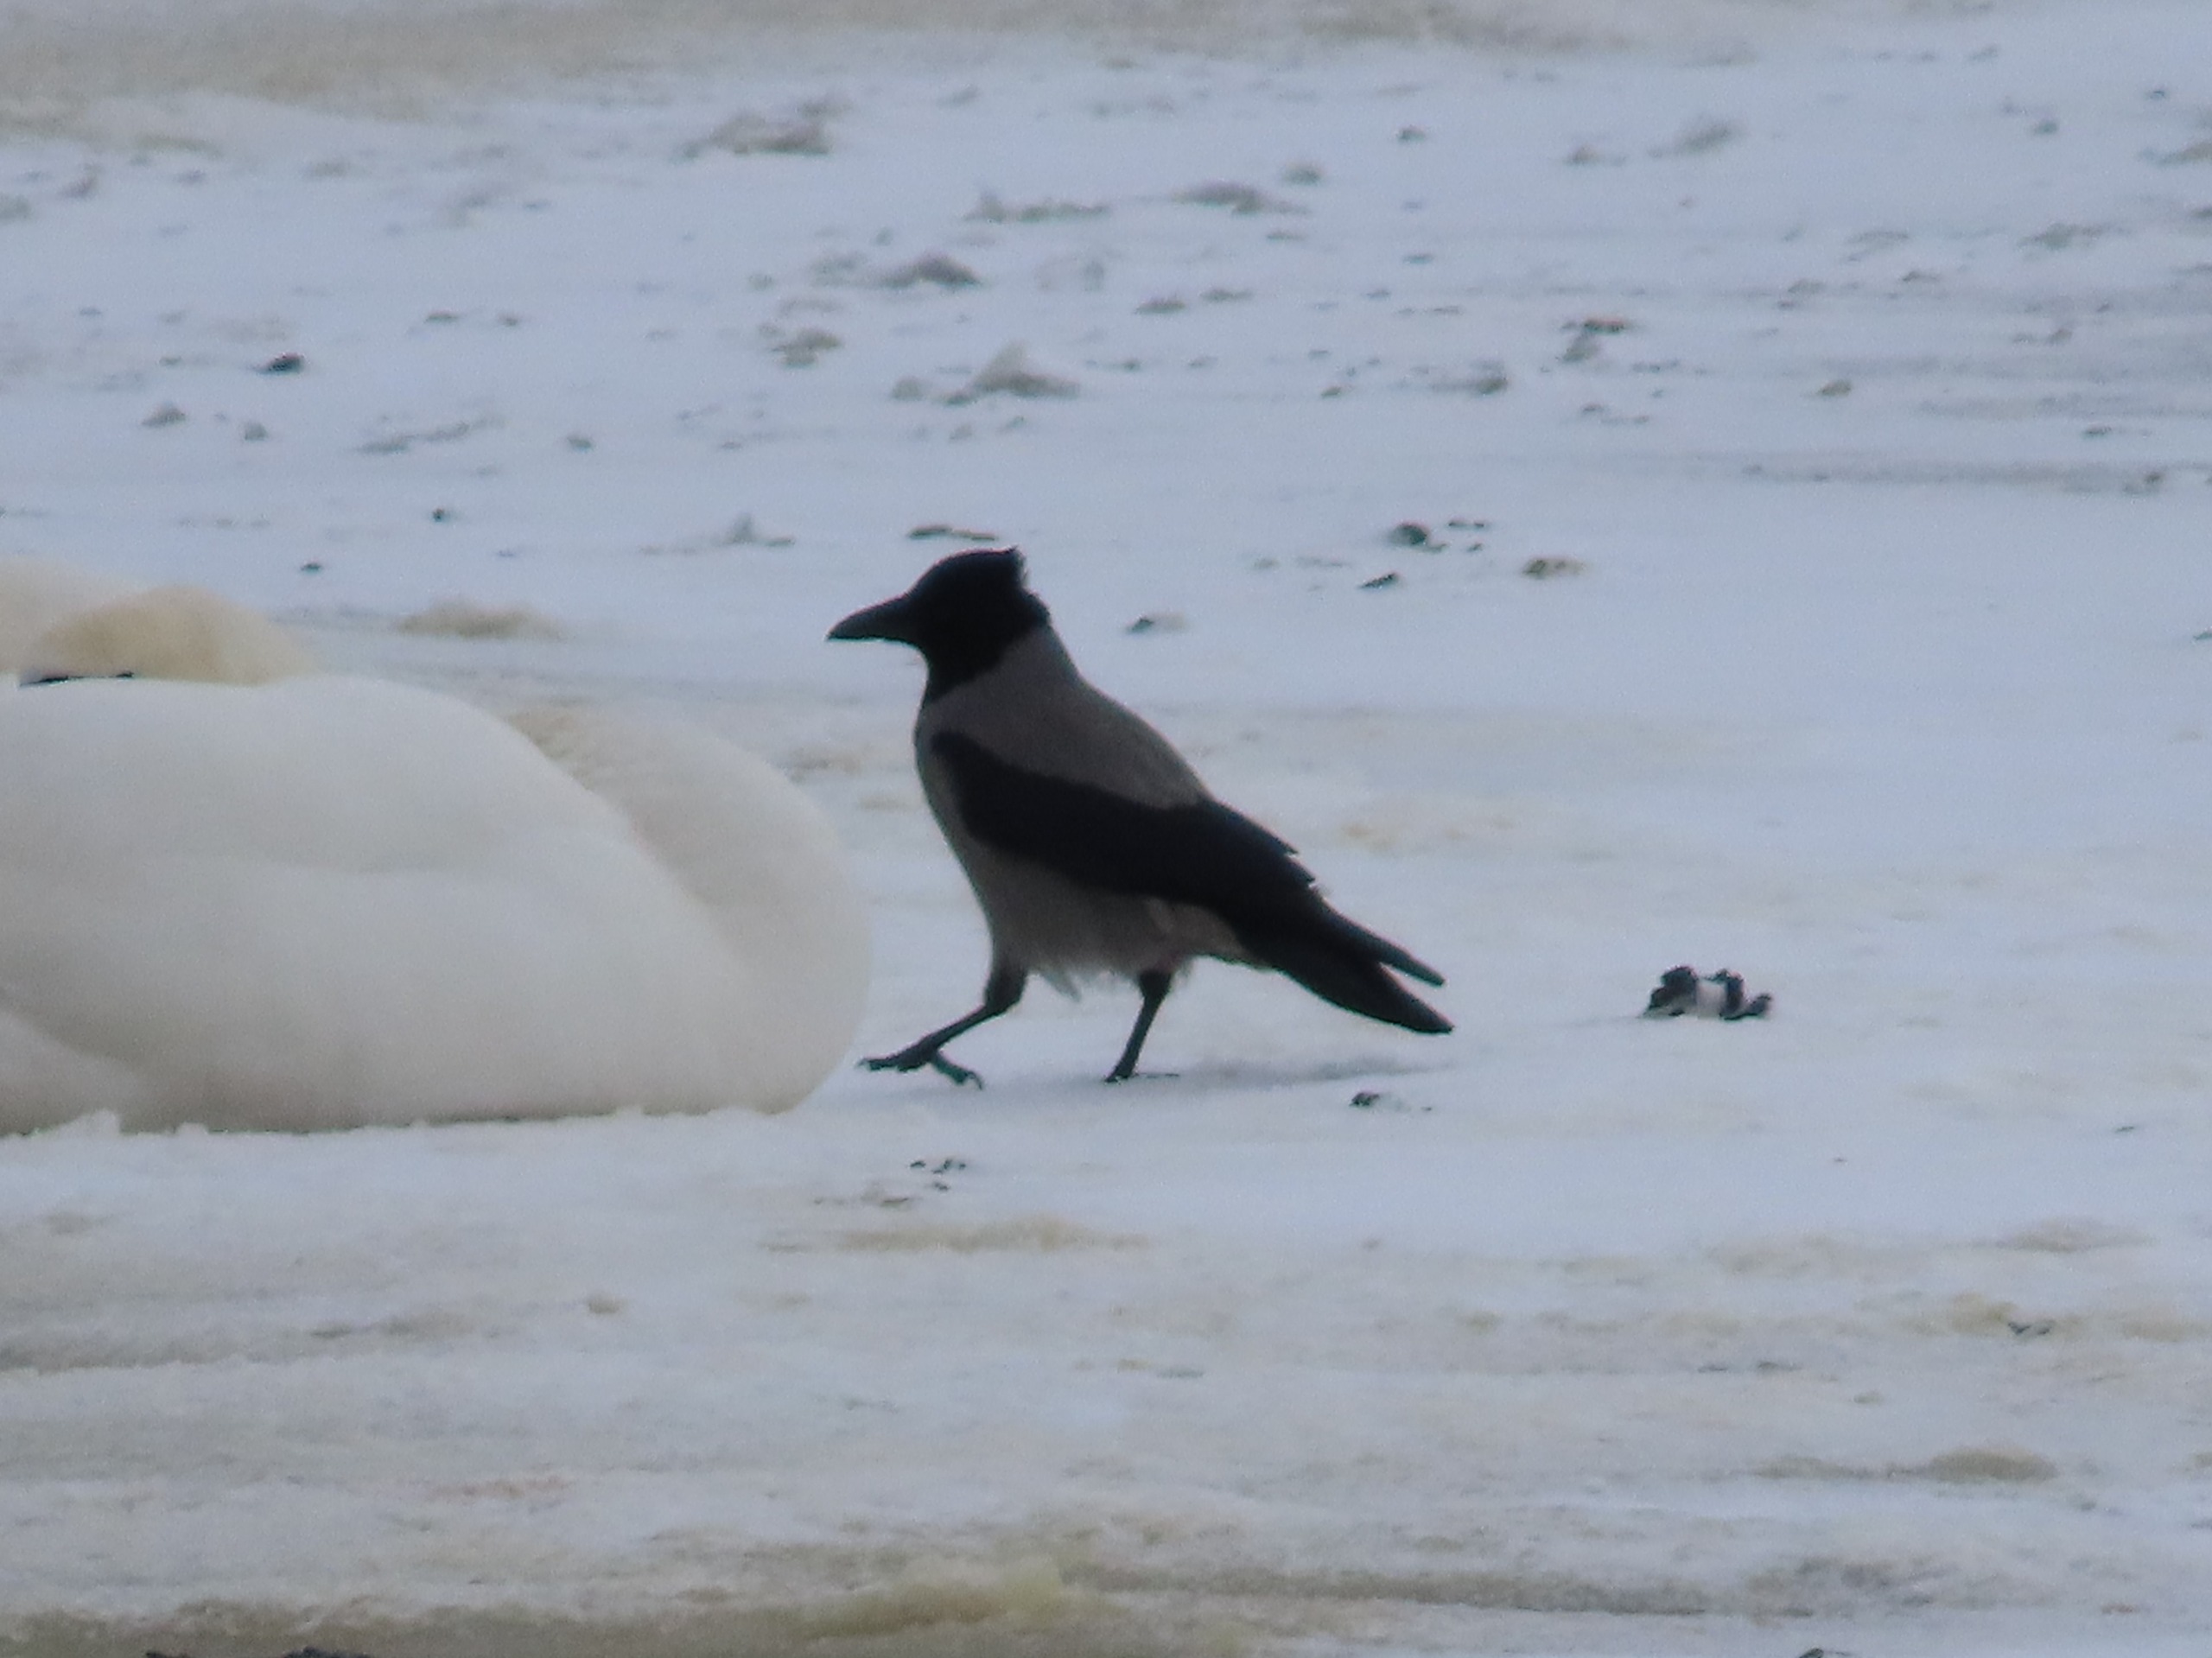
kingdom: Animalia
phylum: Chordata
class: Aves
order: Passeriformes
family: Corvidae
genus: Corvus
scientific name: Corvus cornix
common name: Gråkrage
